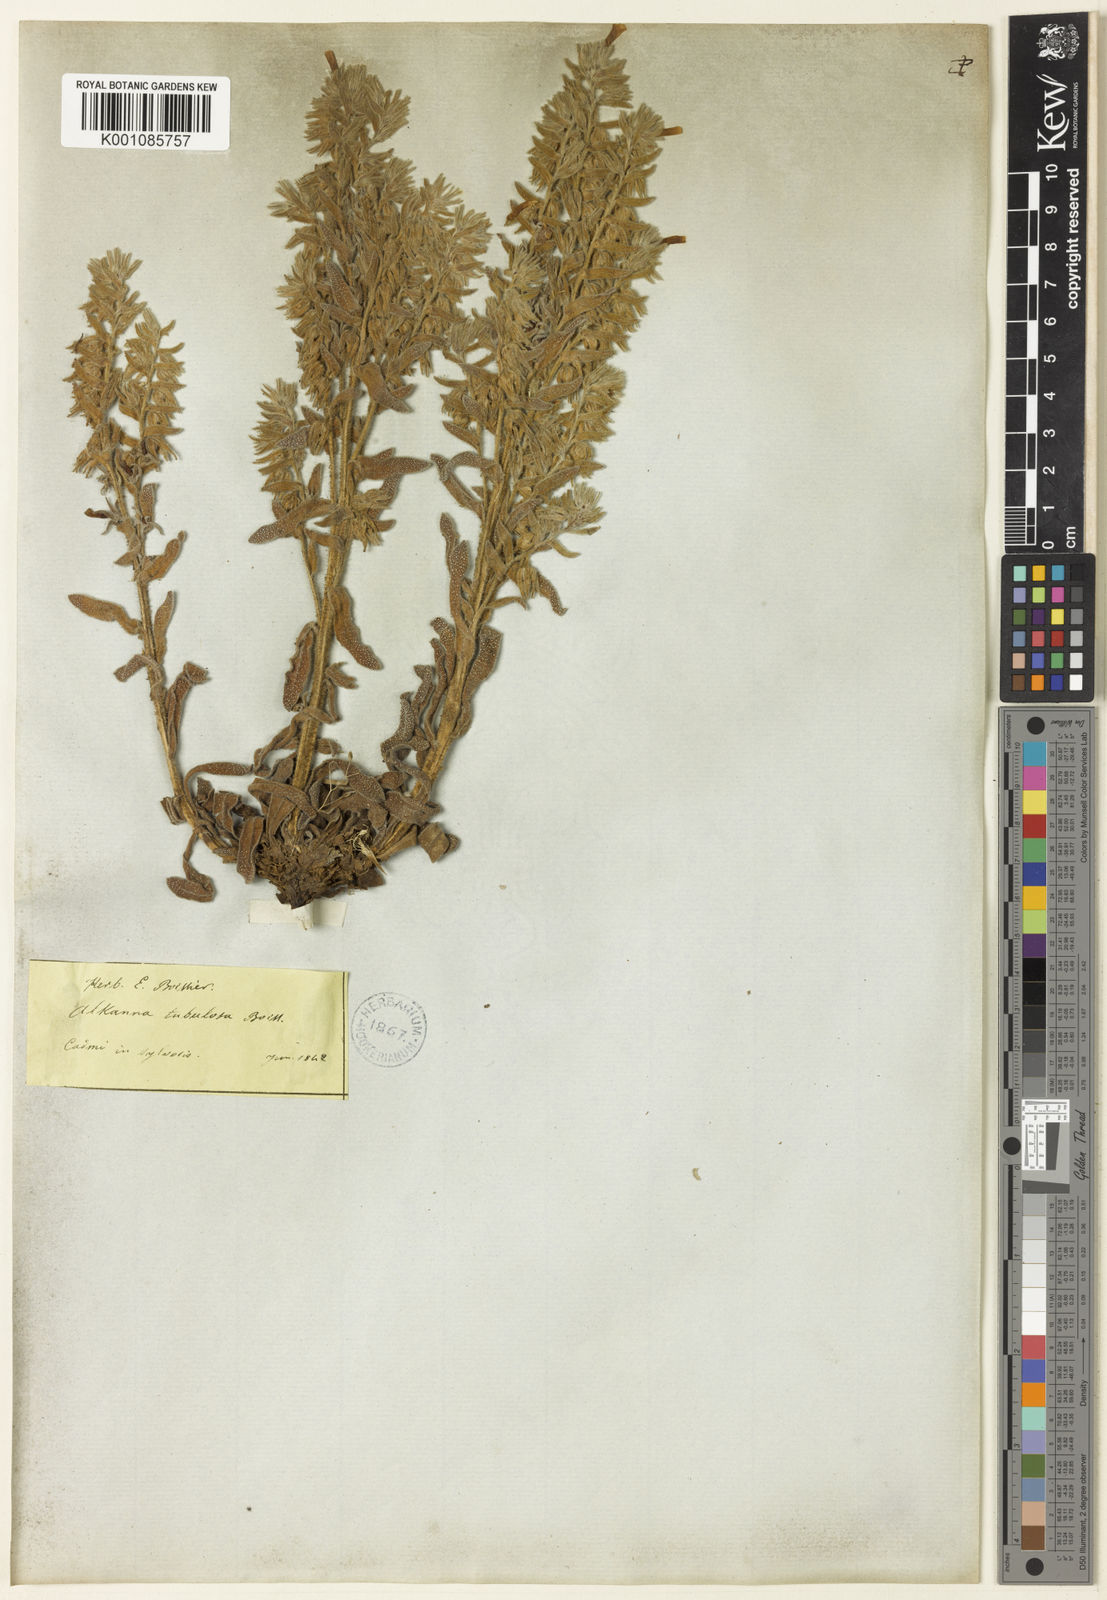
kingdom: Plantae
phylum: Tracheophyta
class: Magnoliopsida
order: Boraginales
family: Boraginaceae
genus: Alkanna
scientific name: Alkanna tubulosa
